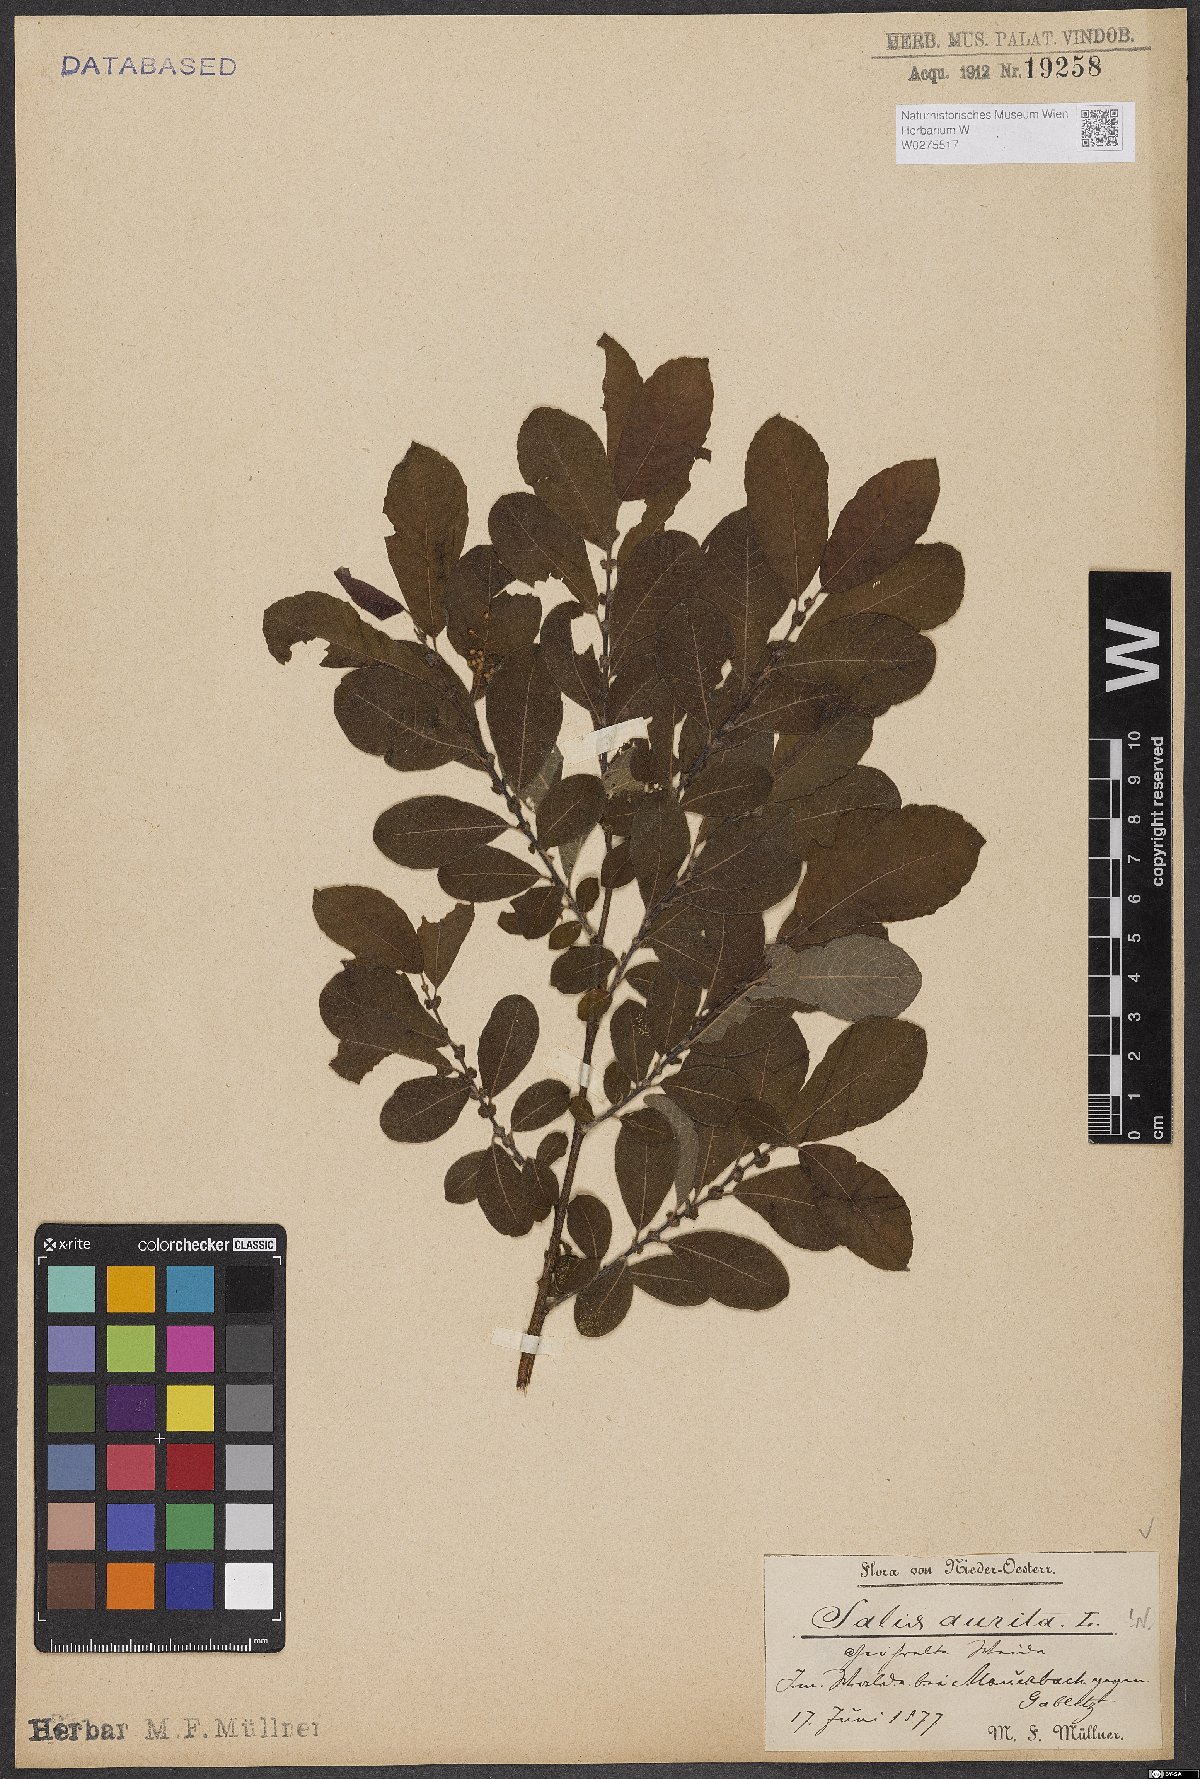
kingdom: Plantae
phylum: Tracheophyta
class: Magnoliopsida
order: Malpighiales
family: Salicaceae
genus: Salix
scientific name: Salix aurita
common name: Eared willow
